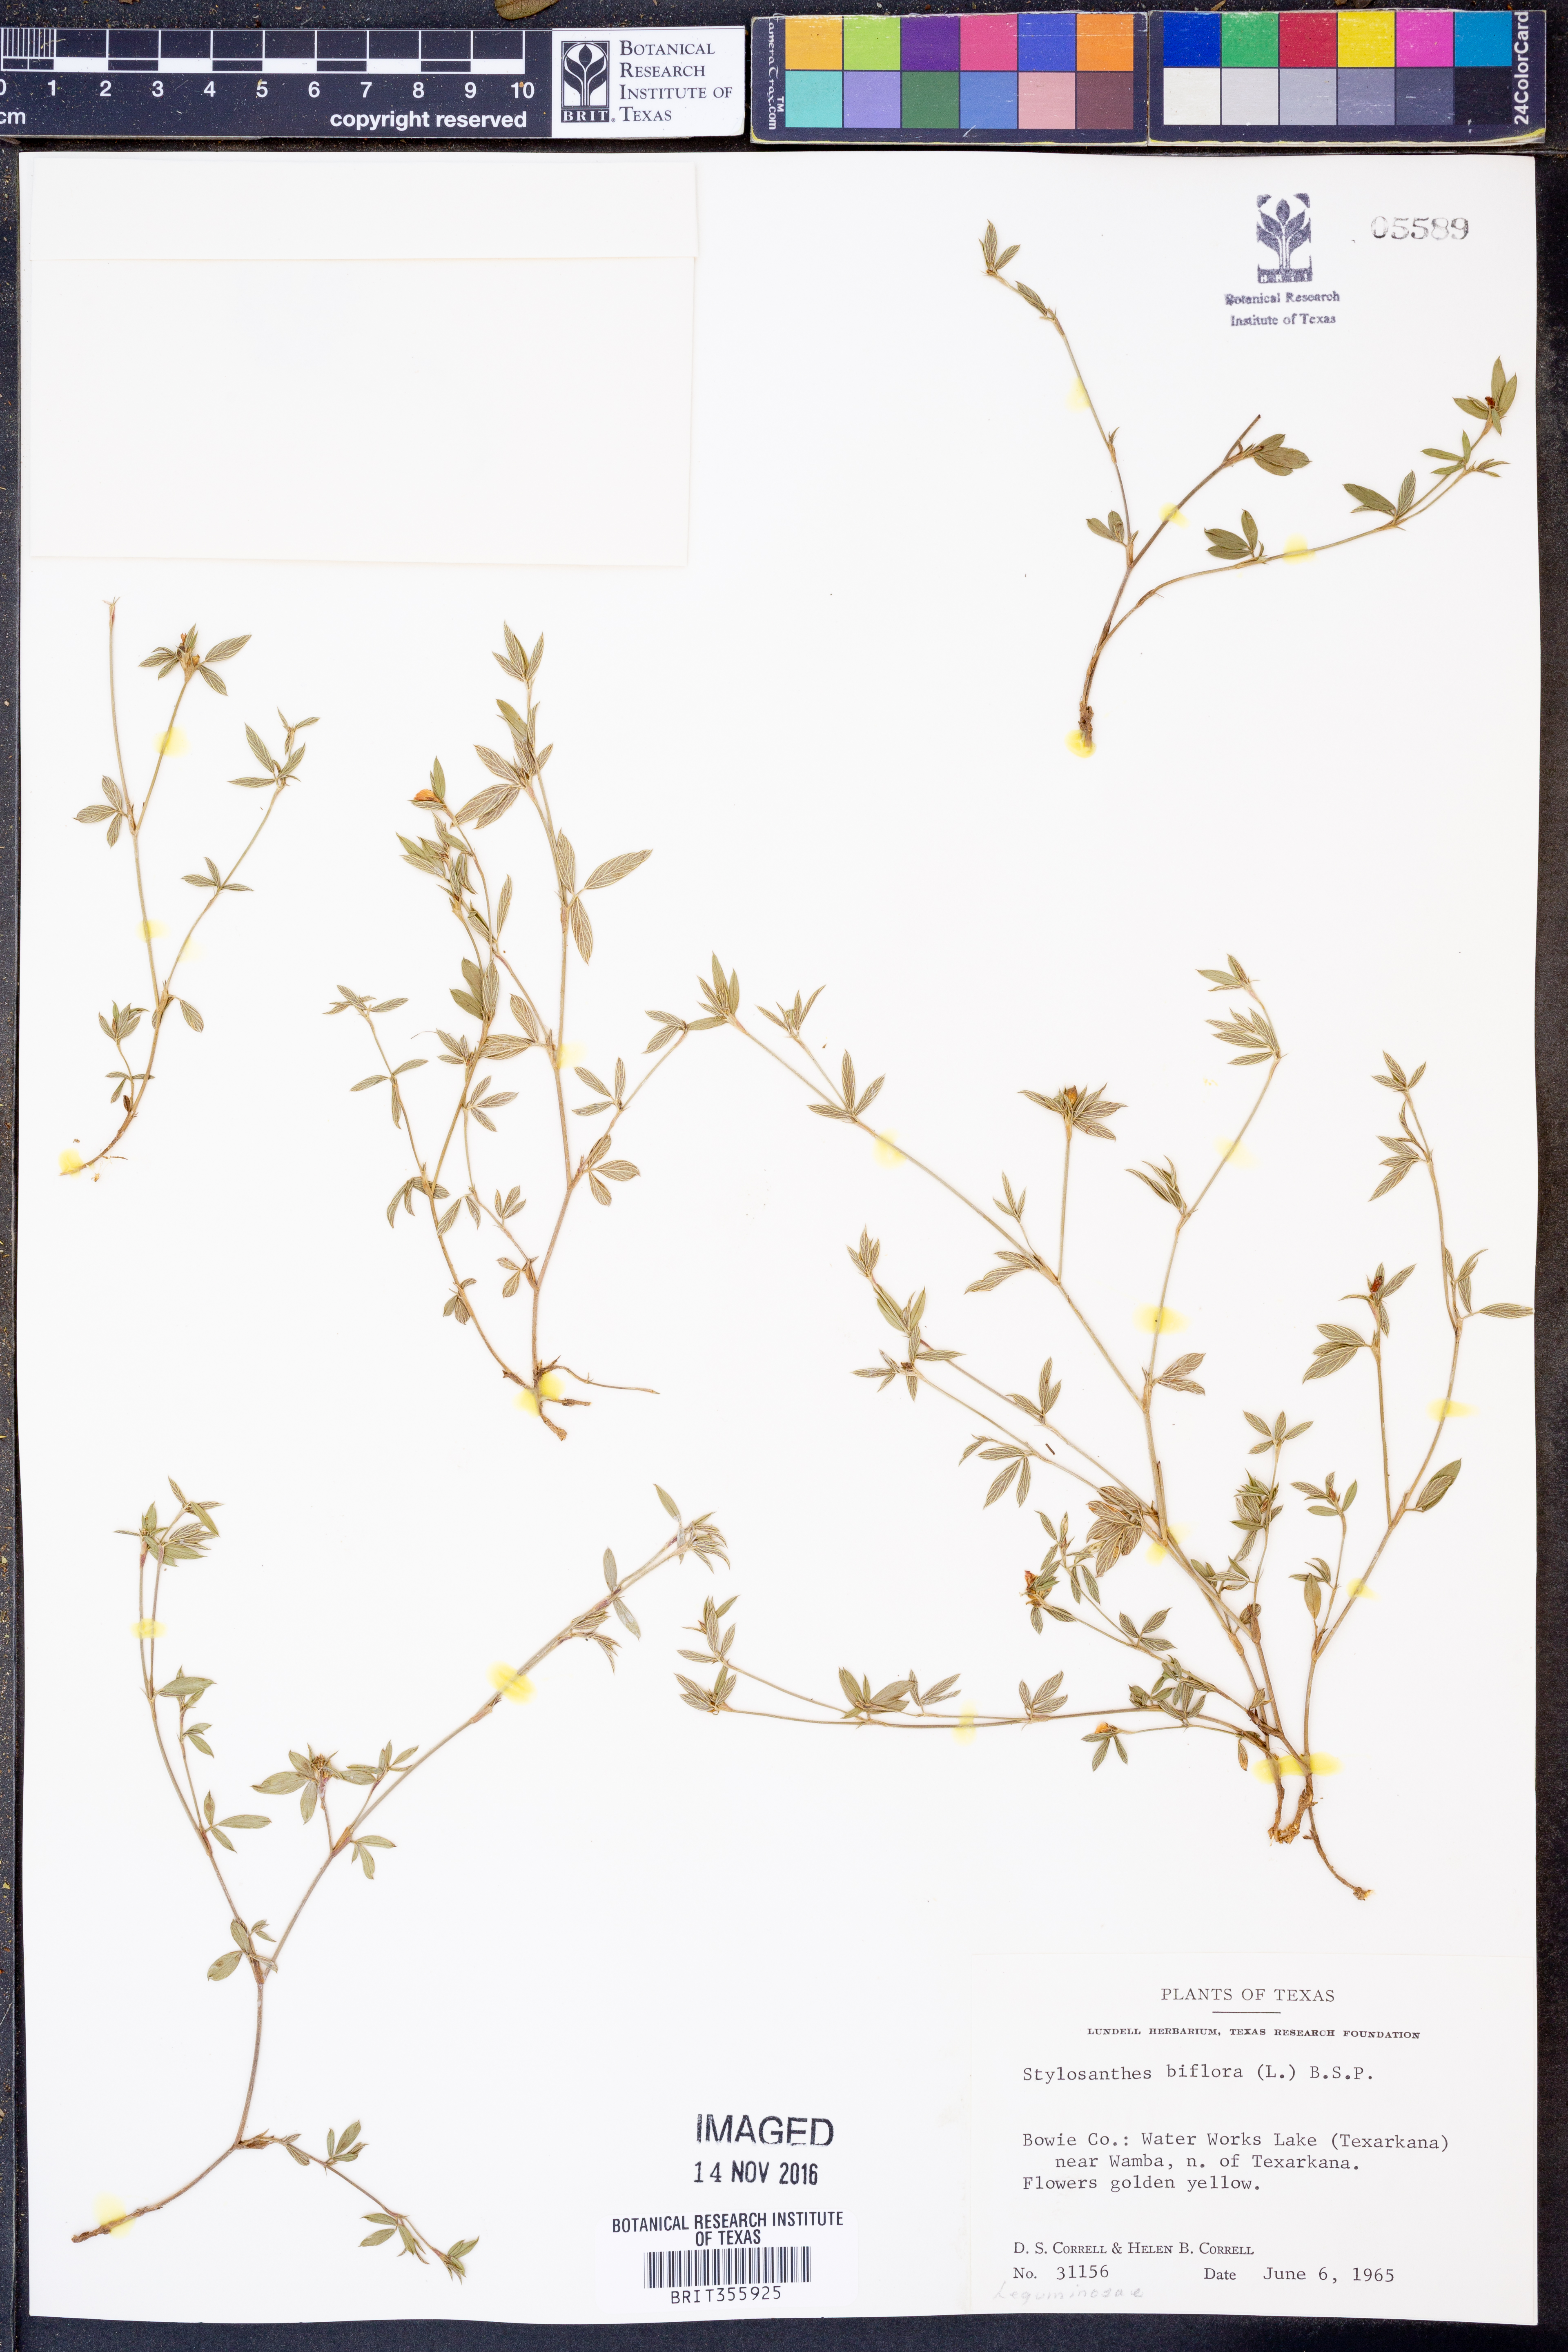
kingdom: Plantae
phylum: Tracheophyta
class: Magnoliopsida
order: Fabales
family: Fabaceae
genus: Stylosanthes
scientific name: Stylosanthes biflora
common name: Two-flower pencil-flower
